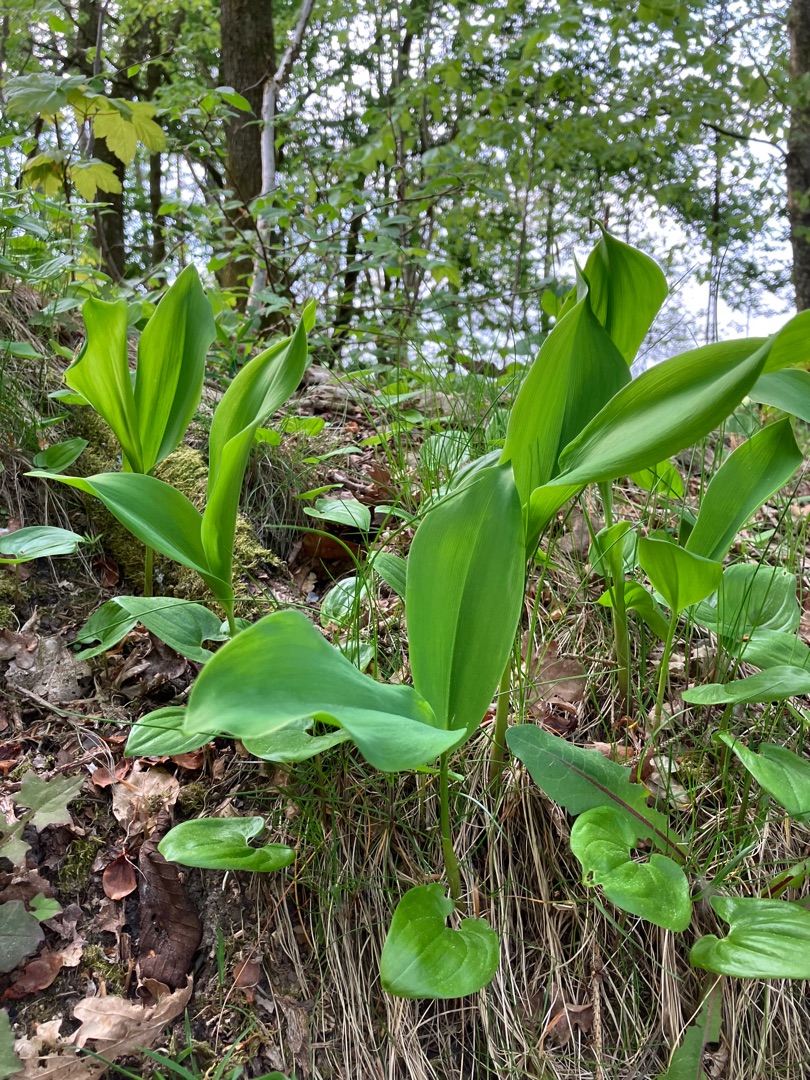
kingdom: Plantae
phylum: Tracheophyta
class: Liliopsida
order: Asparagales
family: Asparagaceae
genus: Convallaria
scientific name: Convallaria majalis
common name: Liljekonval
